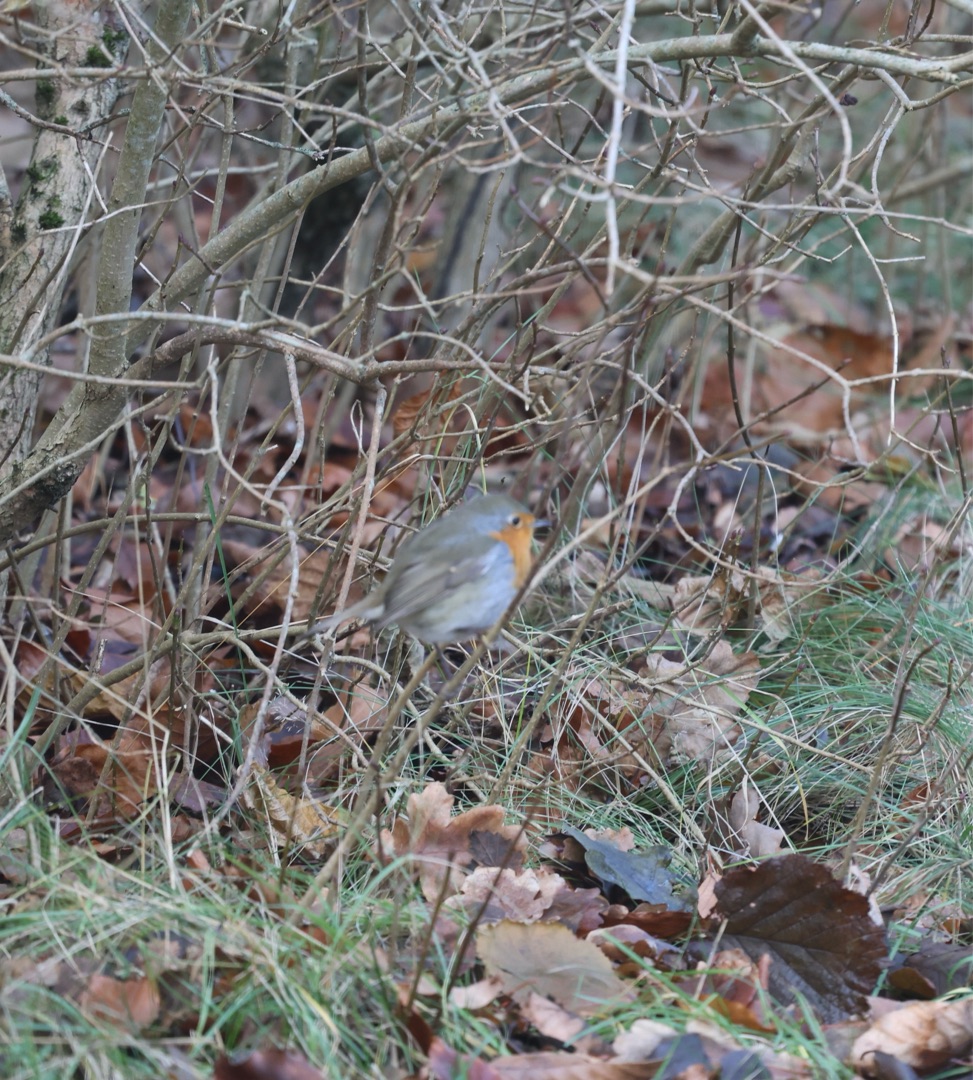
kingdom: Animalia
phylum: Chordata
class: Aves
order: Passeriformes
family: Muscicapidae
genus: Erithacus
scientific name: Erithacus rubecula
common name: Rødhals/rødkælk
